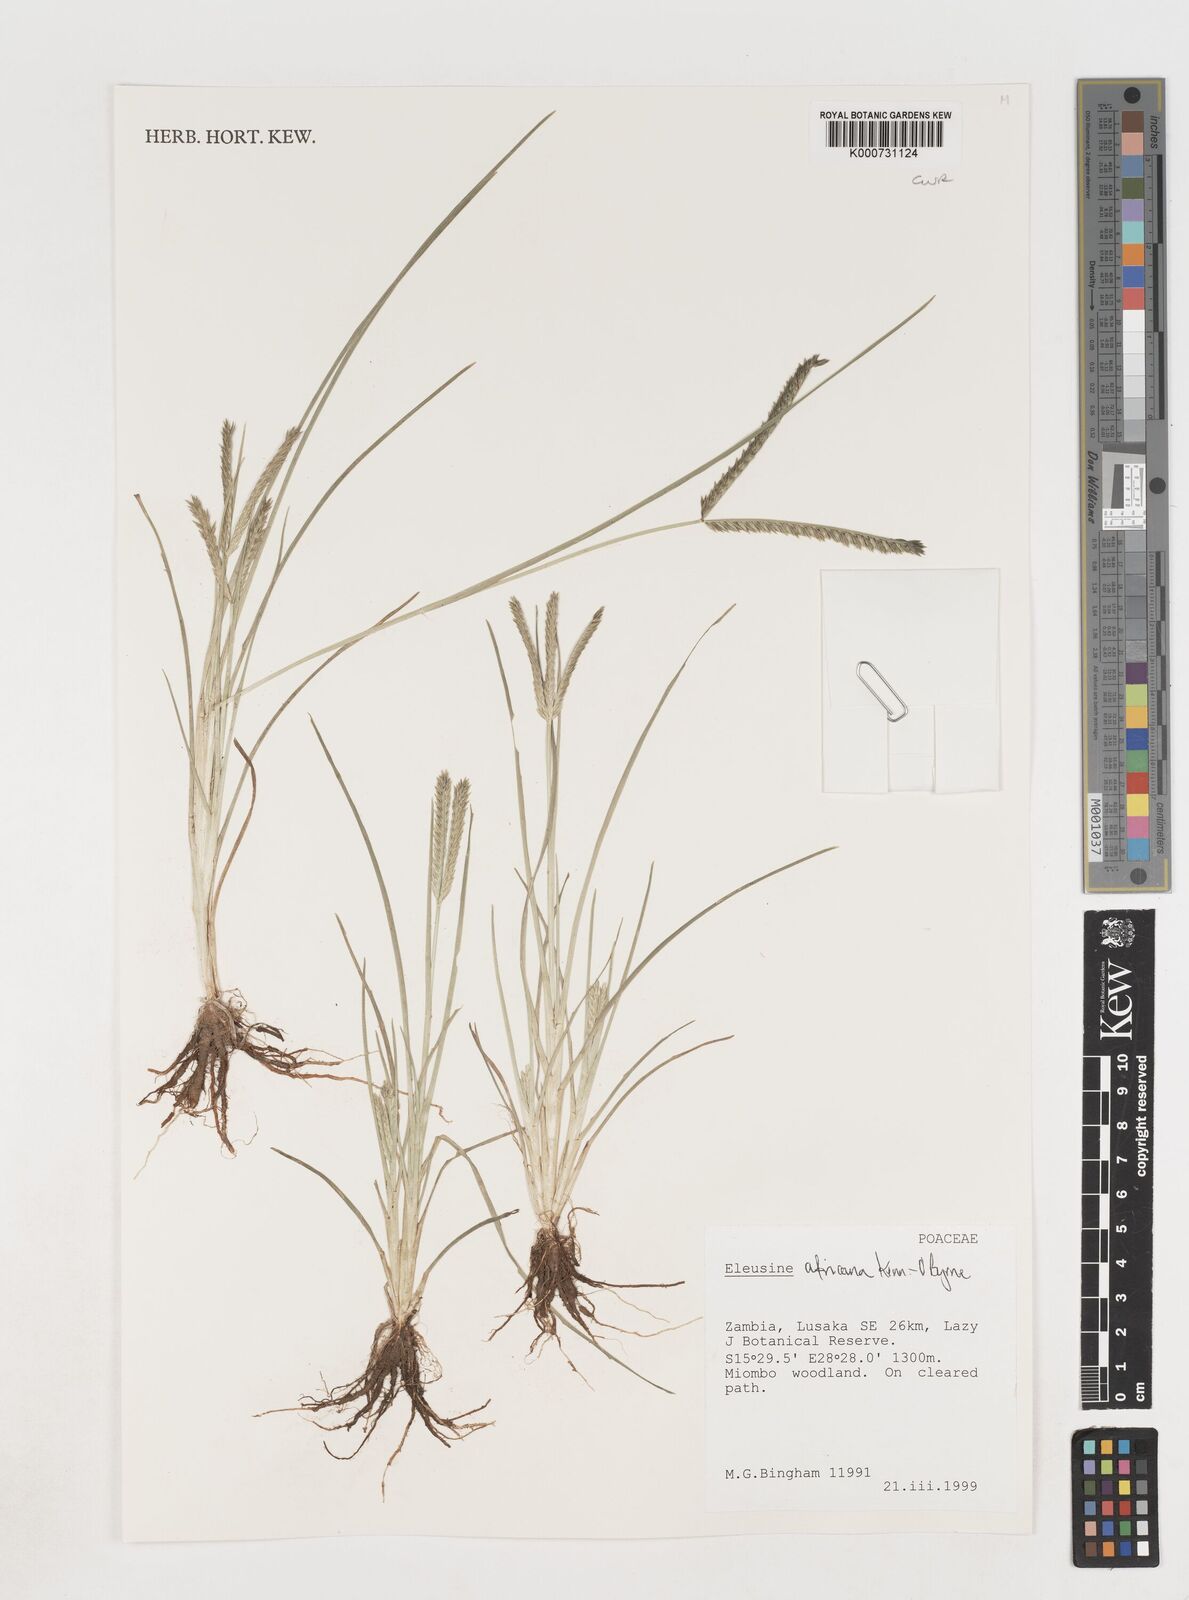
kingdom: Plantae
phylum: Tracheophyta
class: Liliopsida
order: Poales
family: Poaceae
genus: Eleusine
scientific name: Eleusine africana
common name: Wild african finger millet
